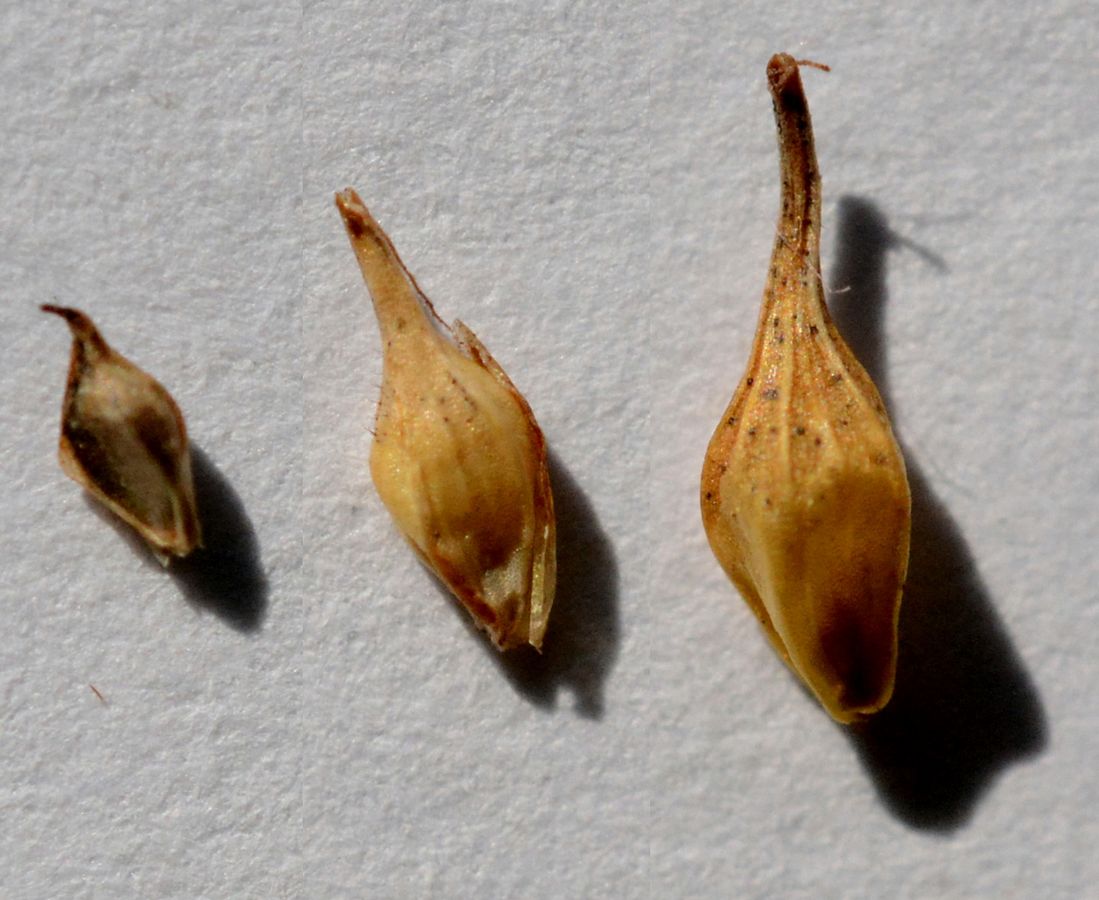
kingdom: Plantae
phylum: Tracheophyta
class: Liliopsida
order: Poales
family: Cyperaceae
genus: Carex
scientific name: Carex oederi
